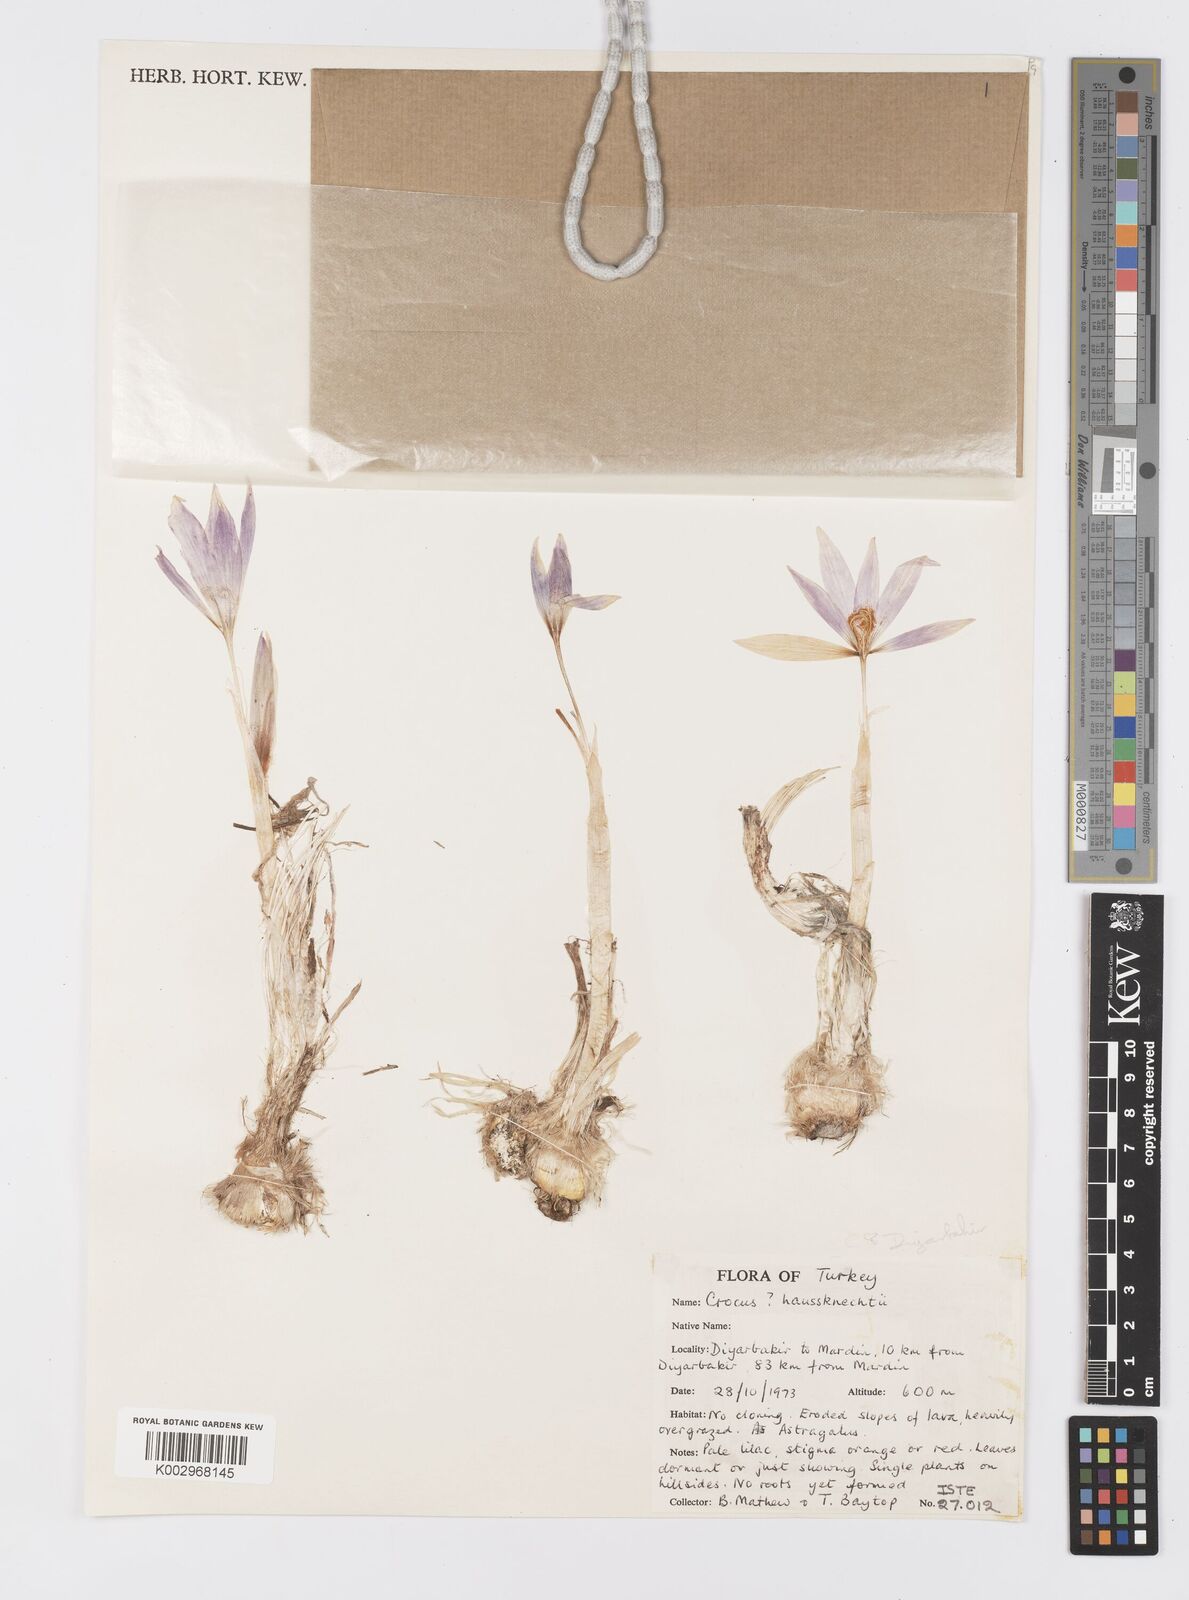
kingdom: Plantae
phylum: Tracheophyta
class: Liliopsida
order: Asparagales
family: Iridaceae
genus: Crocus
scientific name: Crocus turcicus
